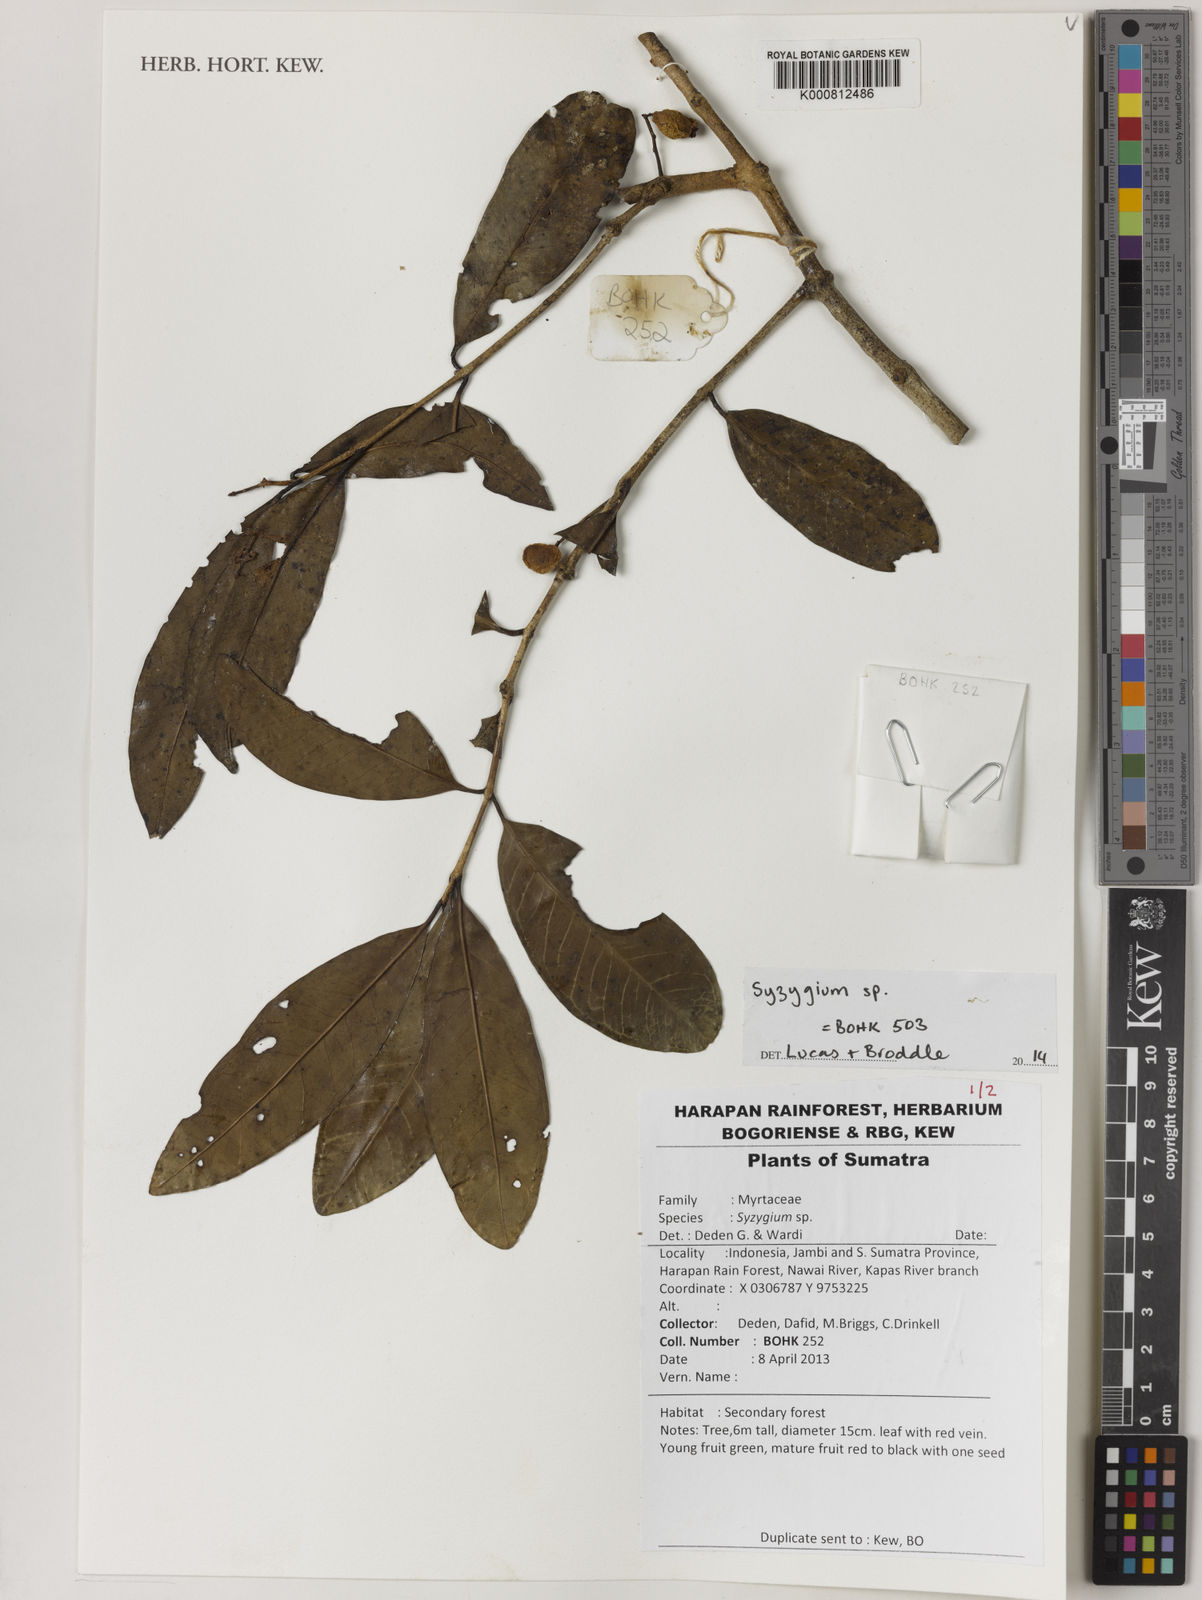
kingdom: Plantae
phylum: Tracheophyta
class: Magnoliopsida
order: Myrtales
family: Myrtaceae
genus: Syzygium
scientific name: Syzygium
